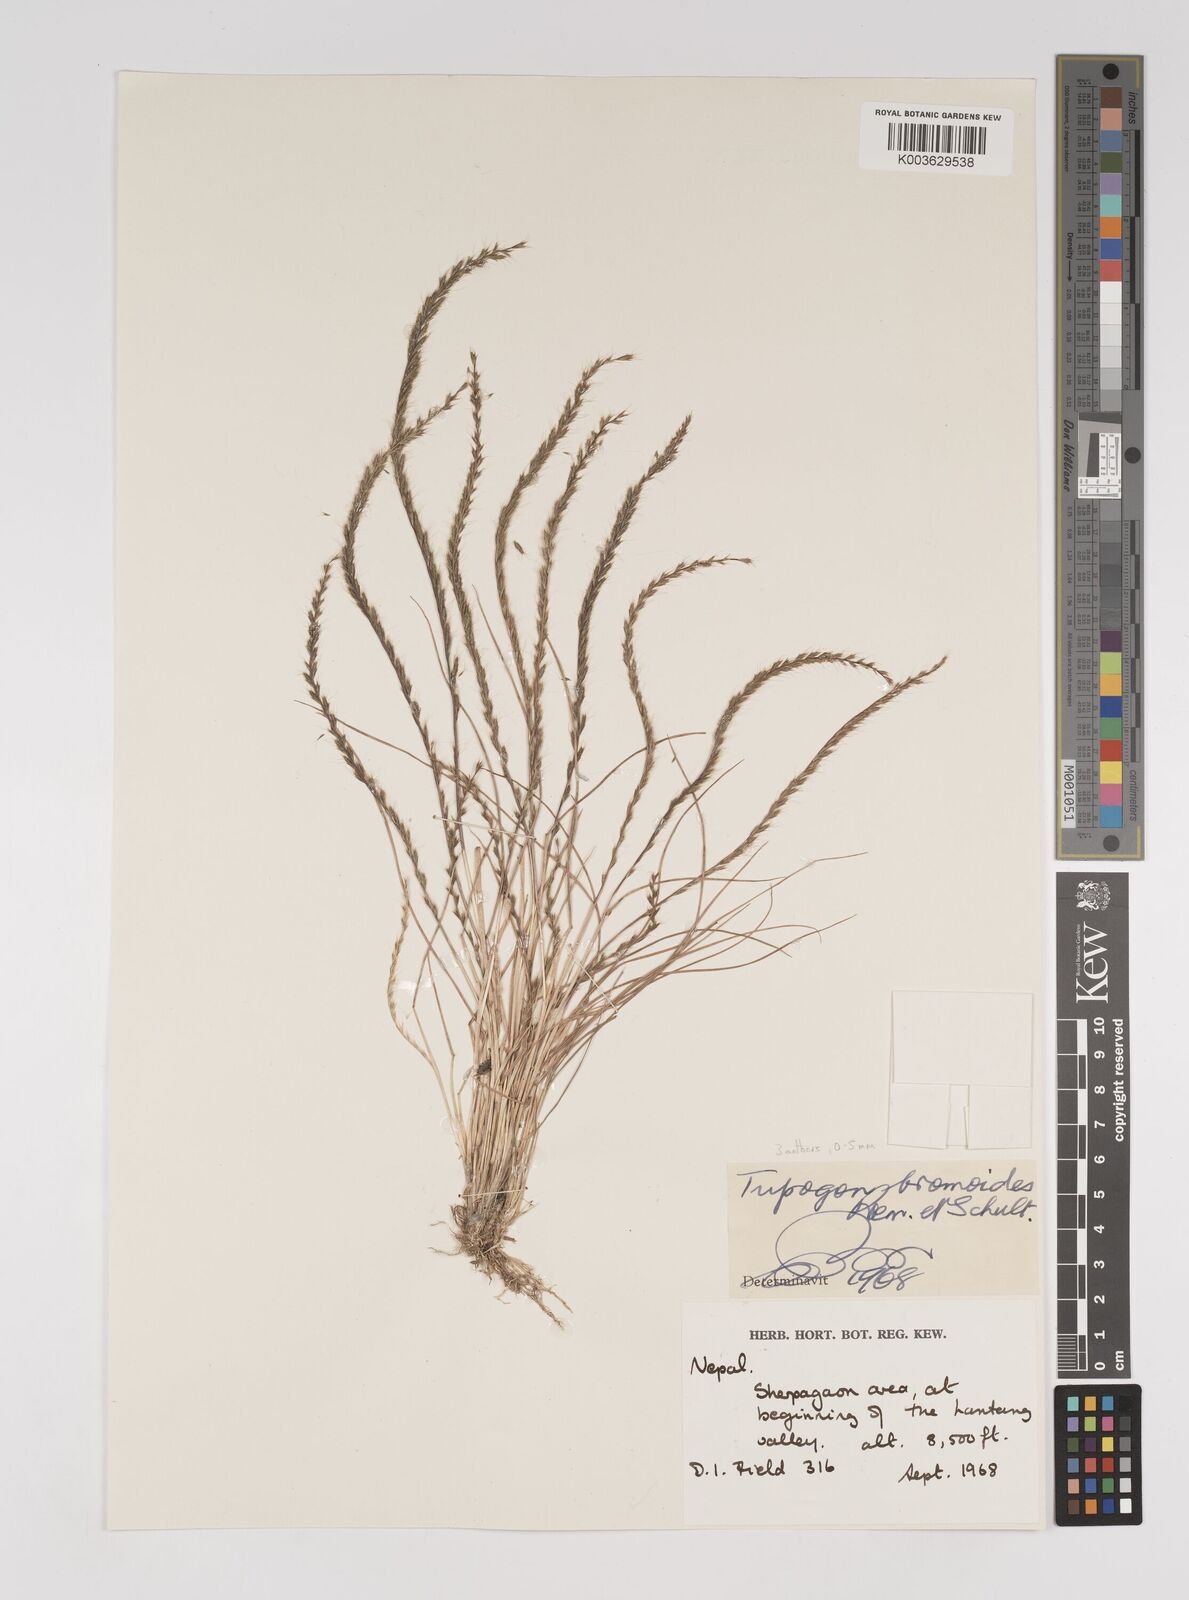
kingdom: Plantae
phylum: Tracheophyta
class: Liliopsida
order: Poales
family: Poaceae
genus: Tripogon
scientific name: Tripogon filiformis
